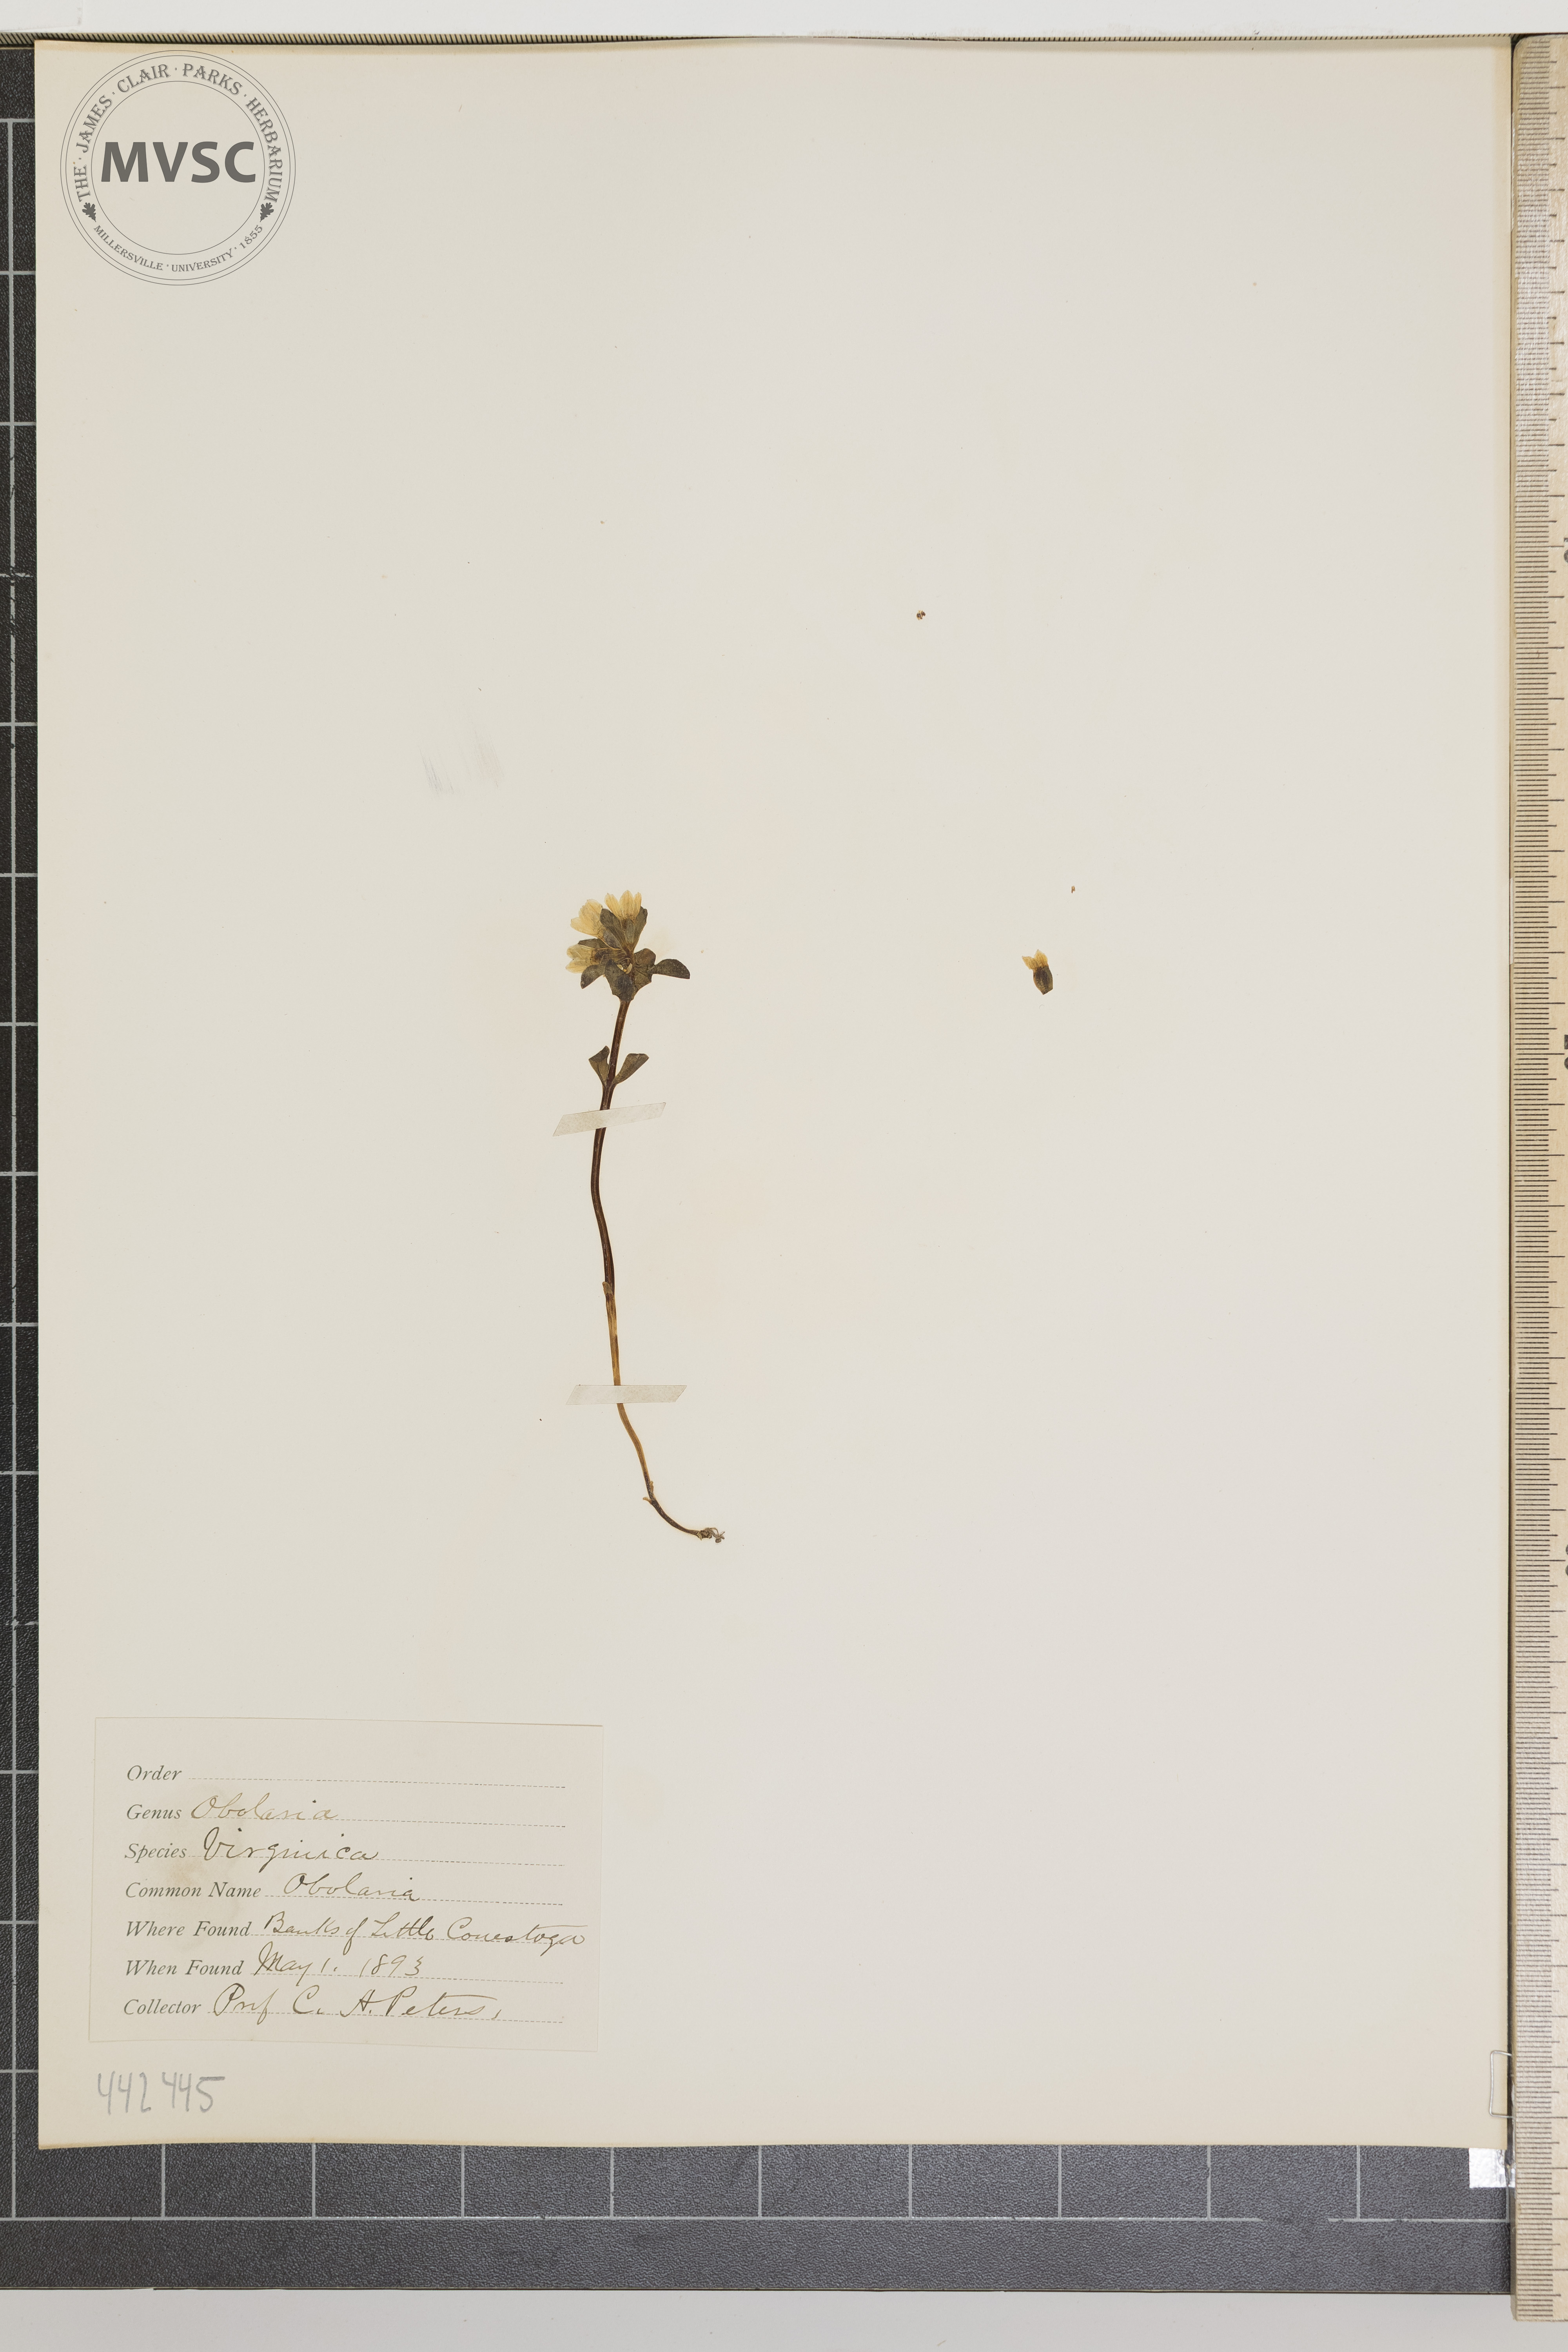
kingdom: Plantae
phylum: Tracheophyta
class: Magnoliopsida
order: Gentianales
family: Gentianaceae
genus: Obolaria
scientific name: Obolaria virginica
